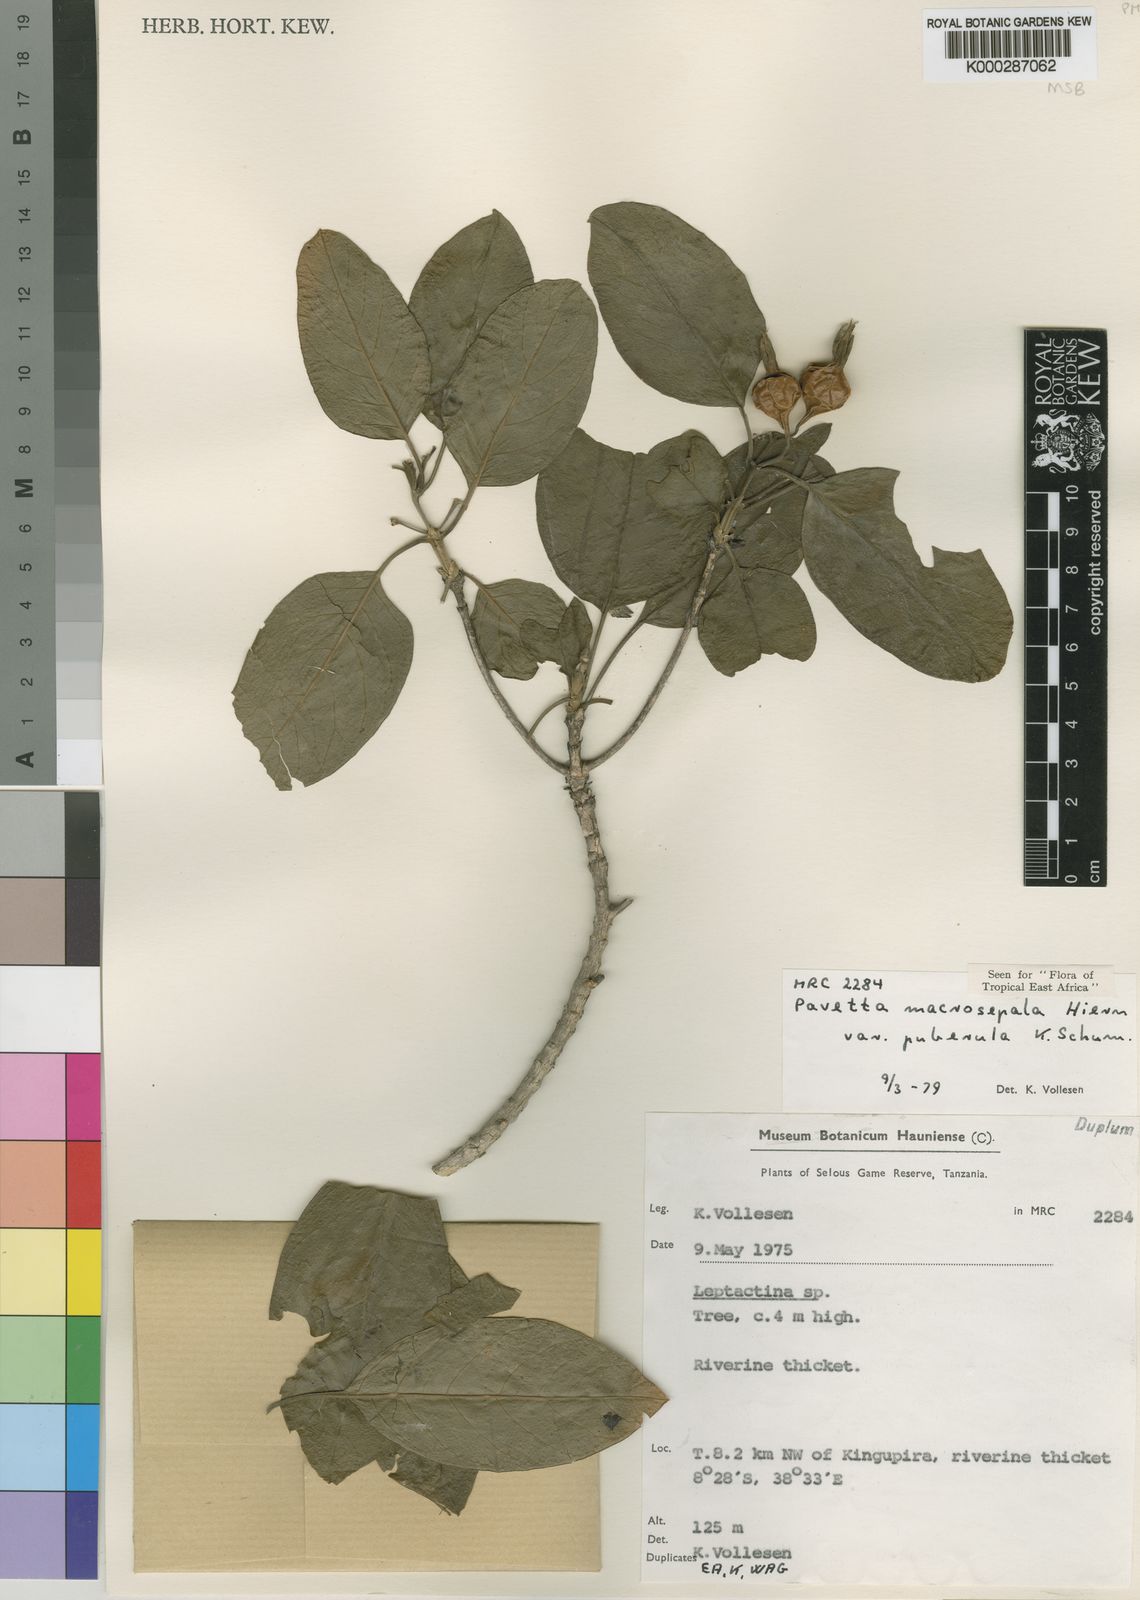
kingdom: Plantae
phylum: Tracheophyta
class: Magnoliopsida
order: Gentianales
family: Rubiaceae
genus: Pavetta
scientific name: Pavetta macrosepala
